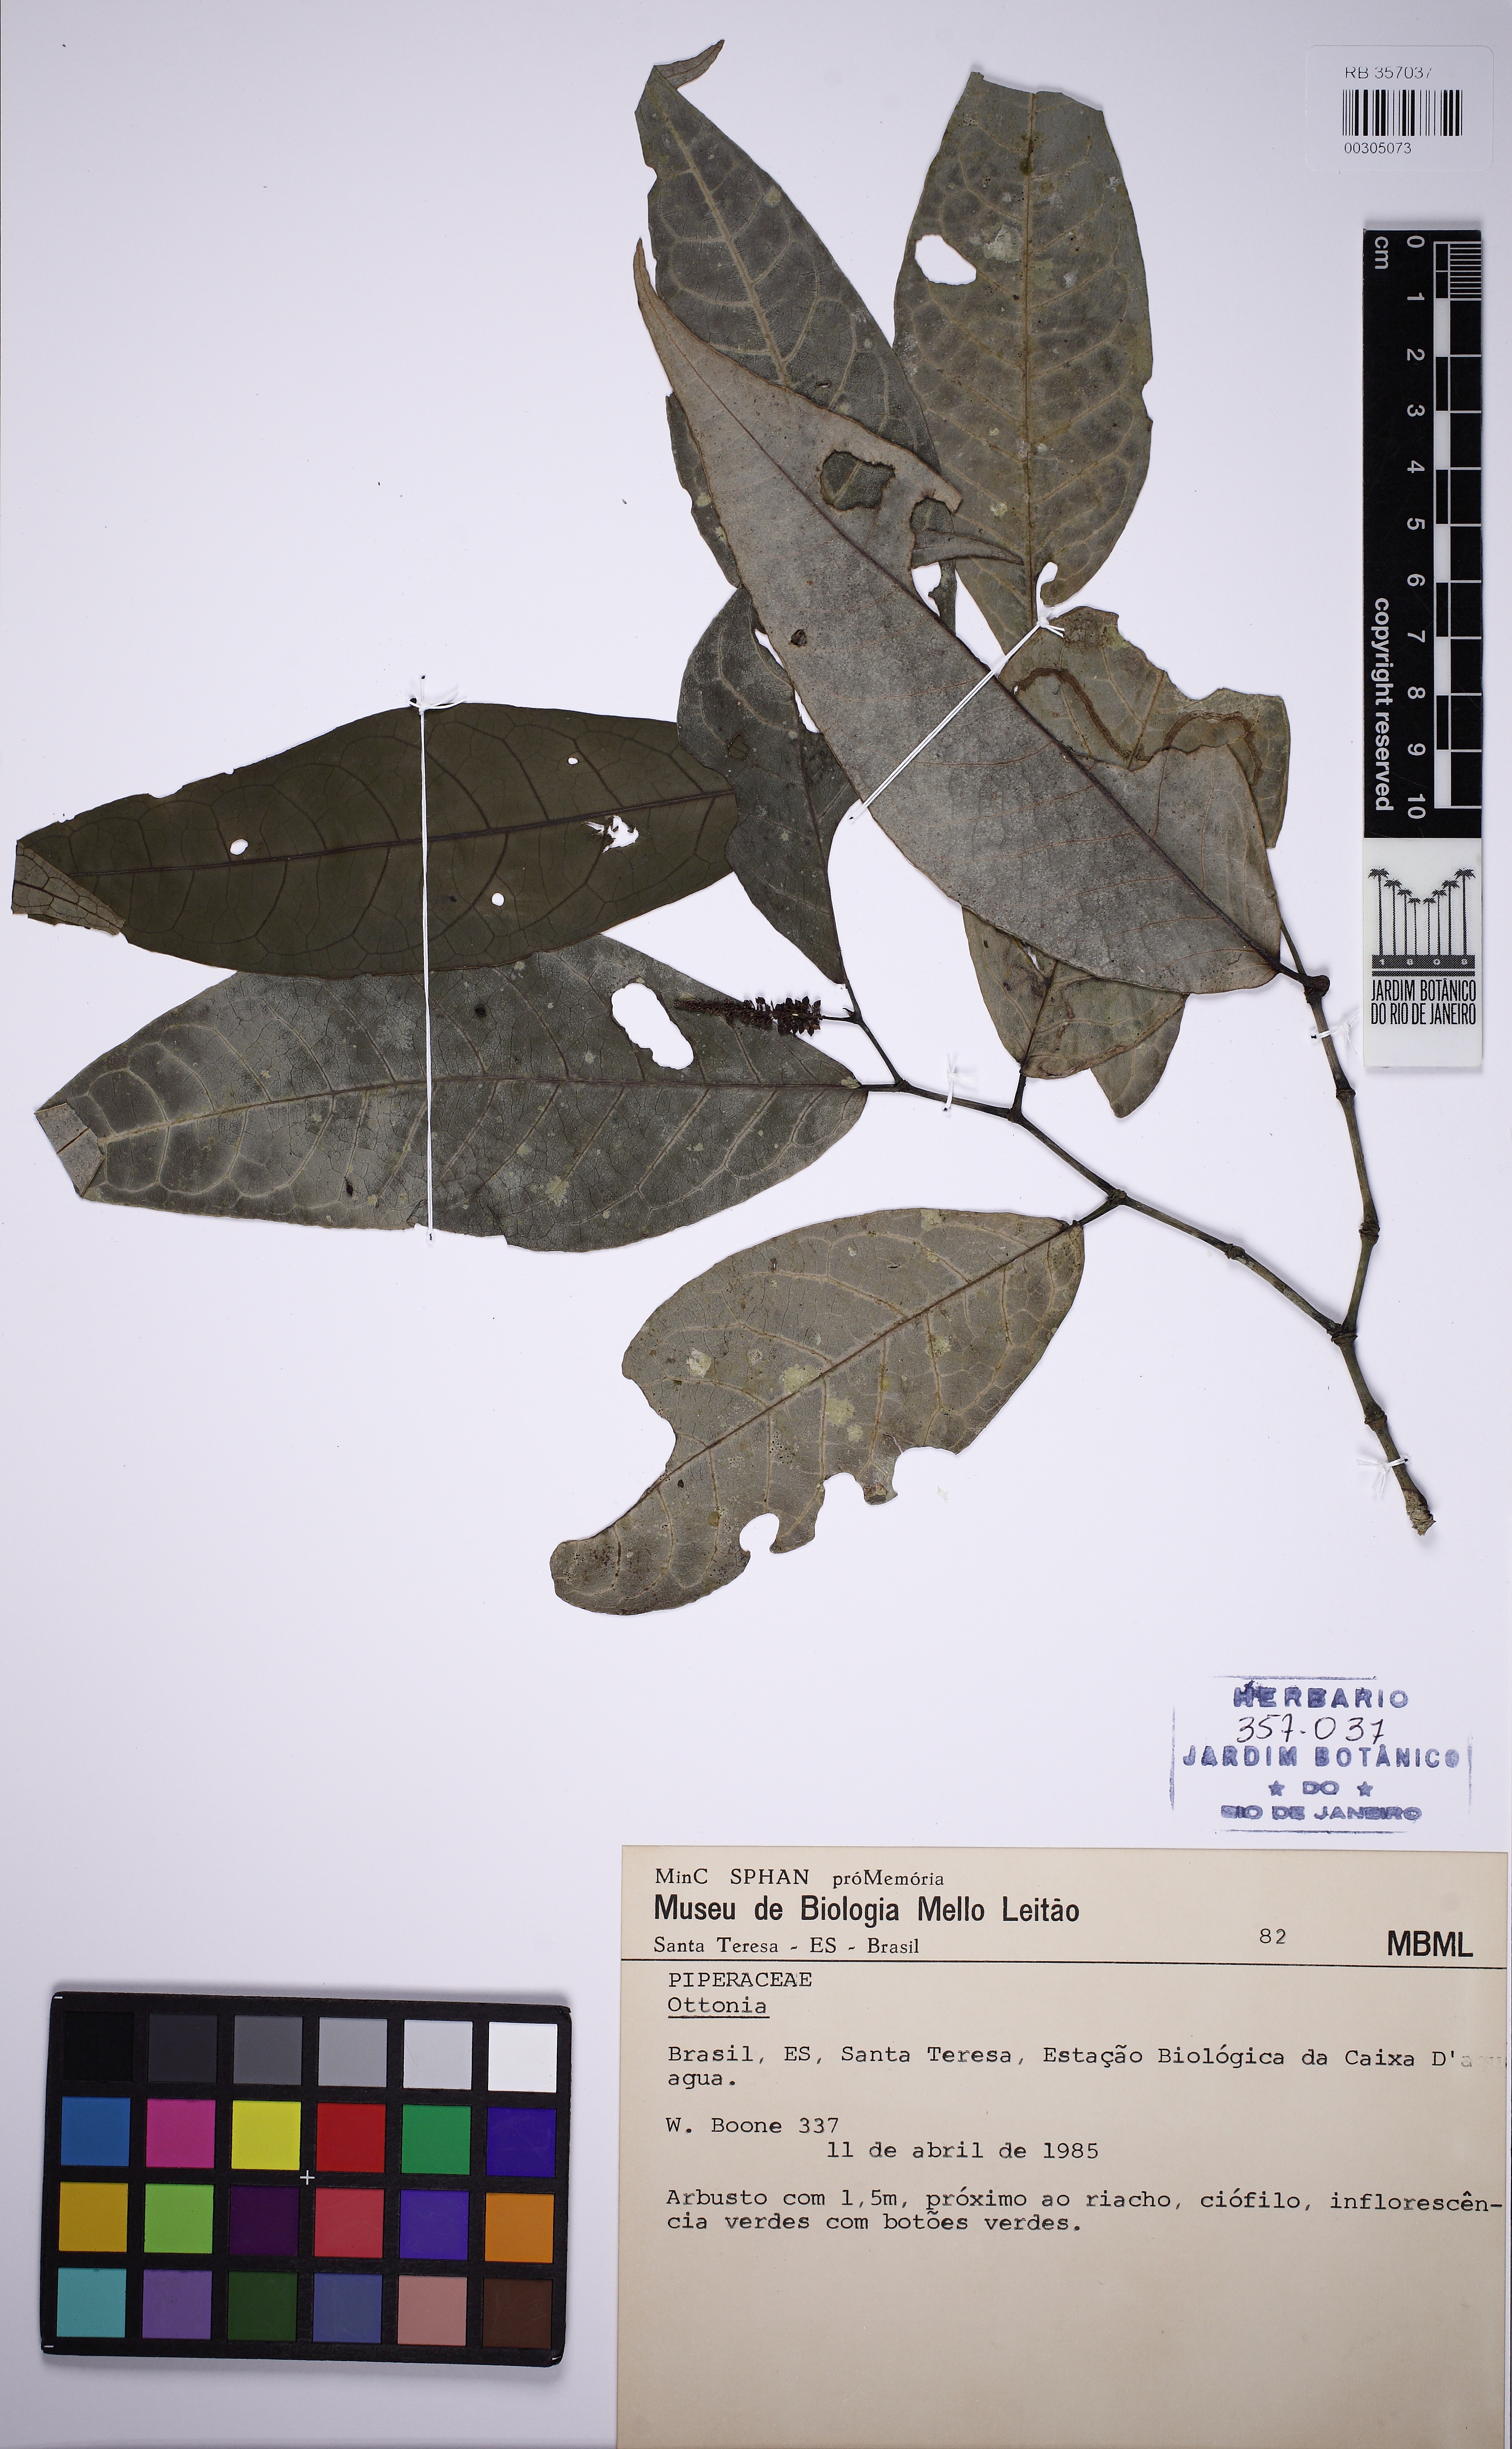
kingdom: Plantae
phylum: Tracheophyta
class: Magnoliopsida
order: Piperales
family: Piperaceae
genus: Piper
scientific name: Piper corcovadense
